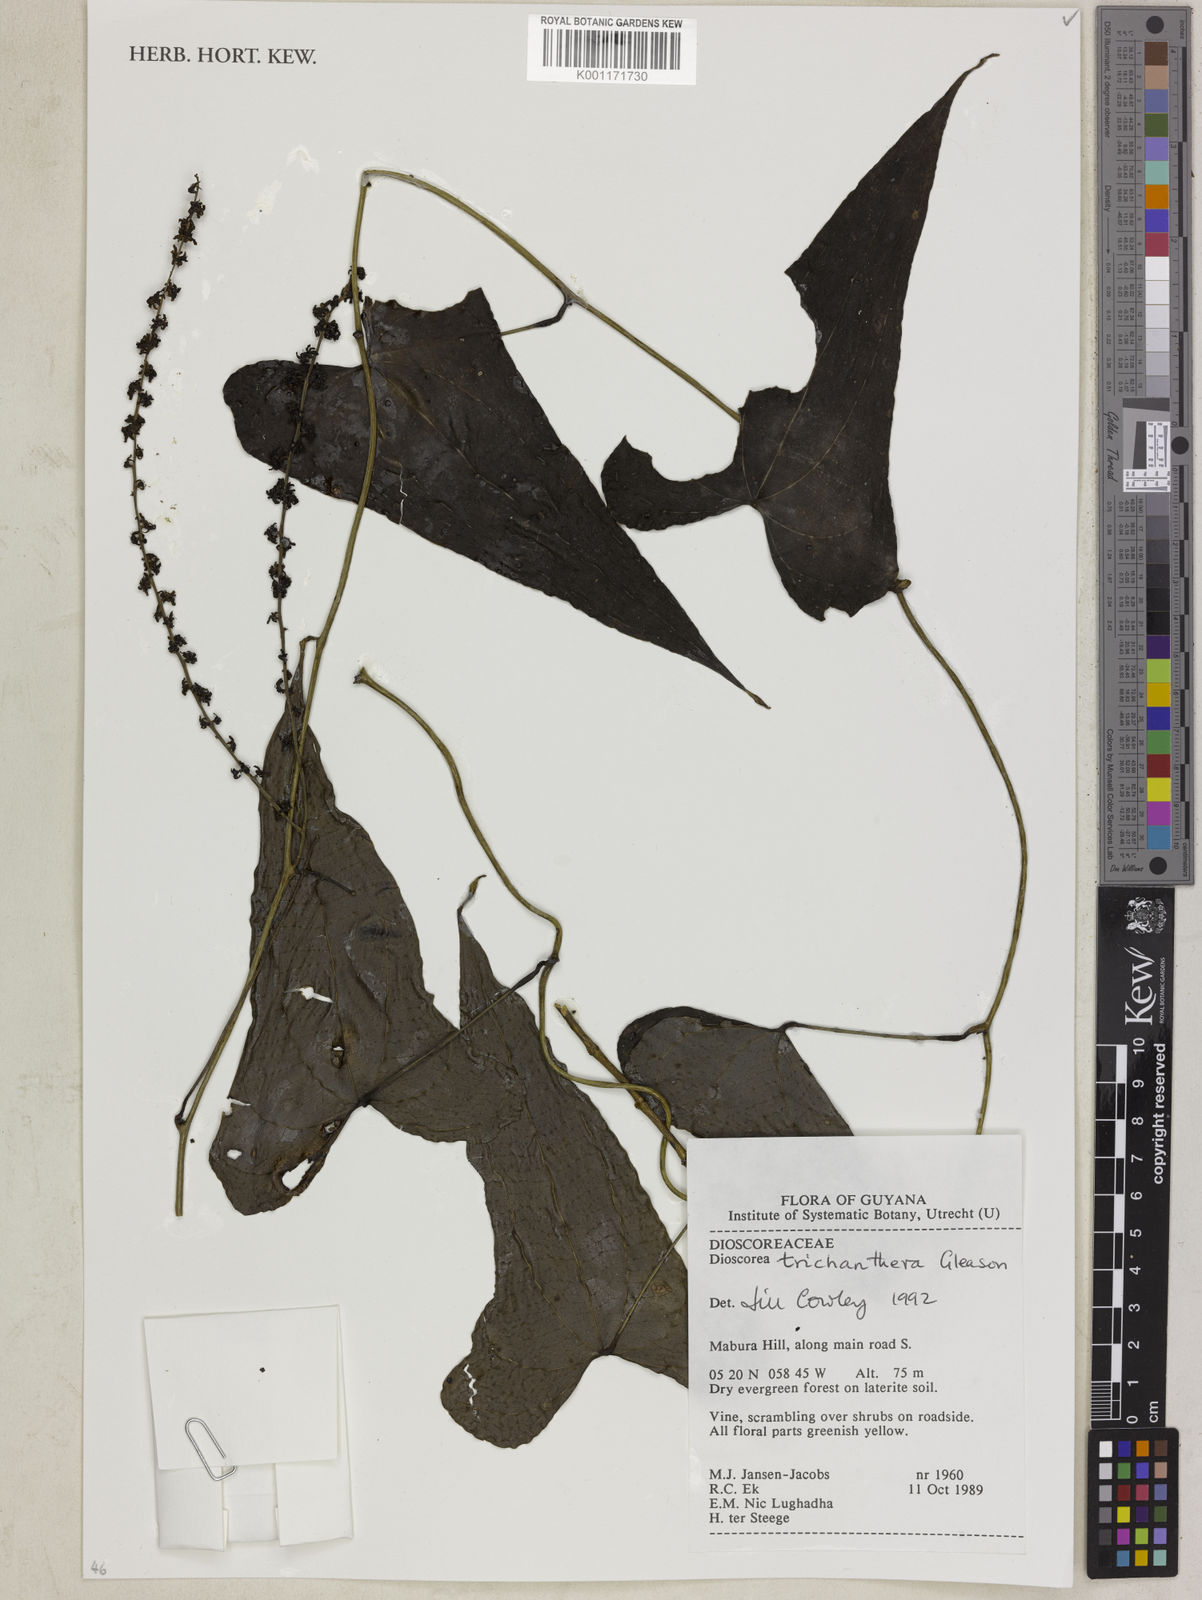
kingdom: Plantae
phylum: Tracheophyta
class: Liliopsida
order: Dioscoreales
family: Dioscoreaceae
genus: Dioscorea
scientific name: Dioscorea trichanthera
